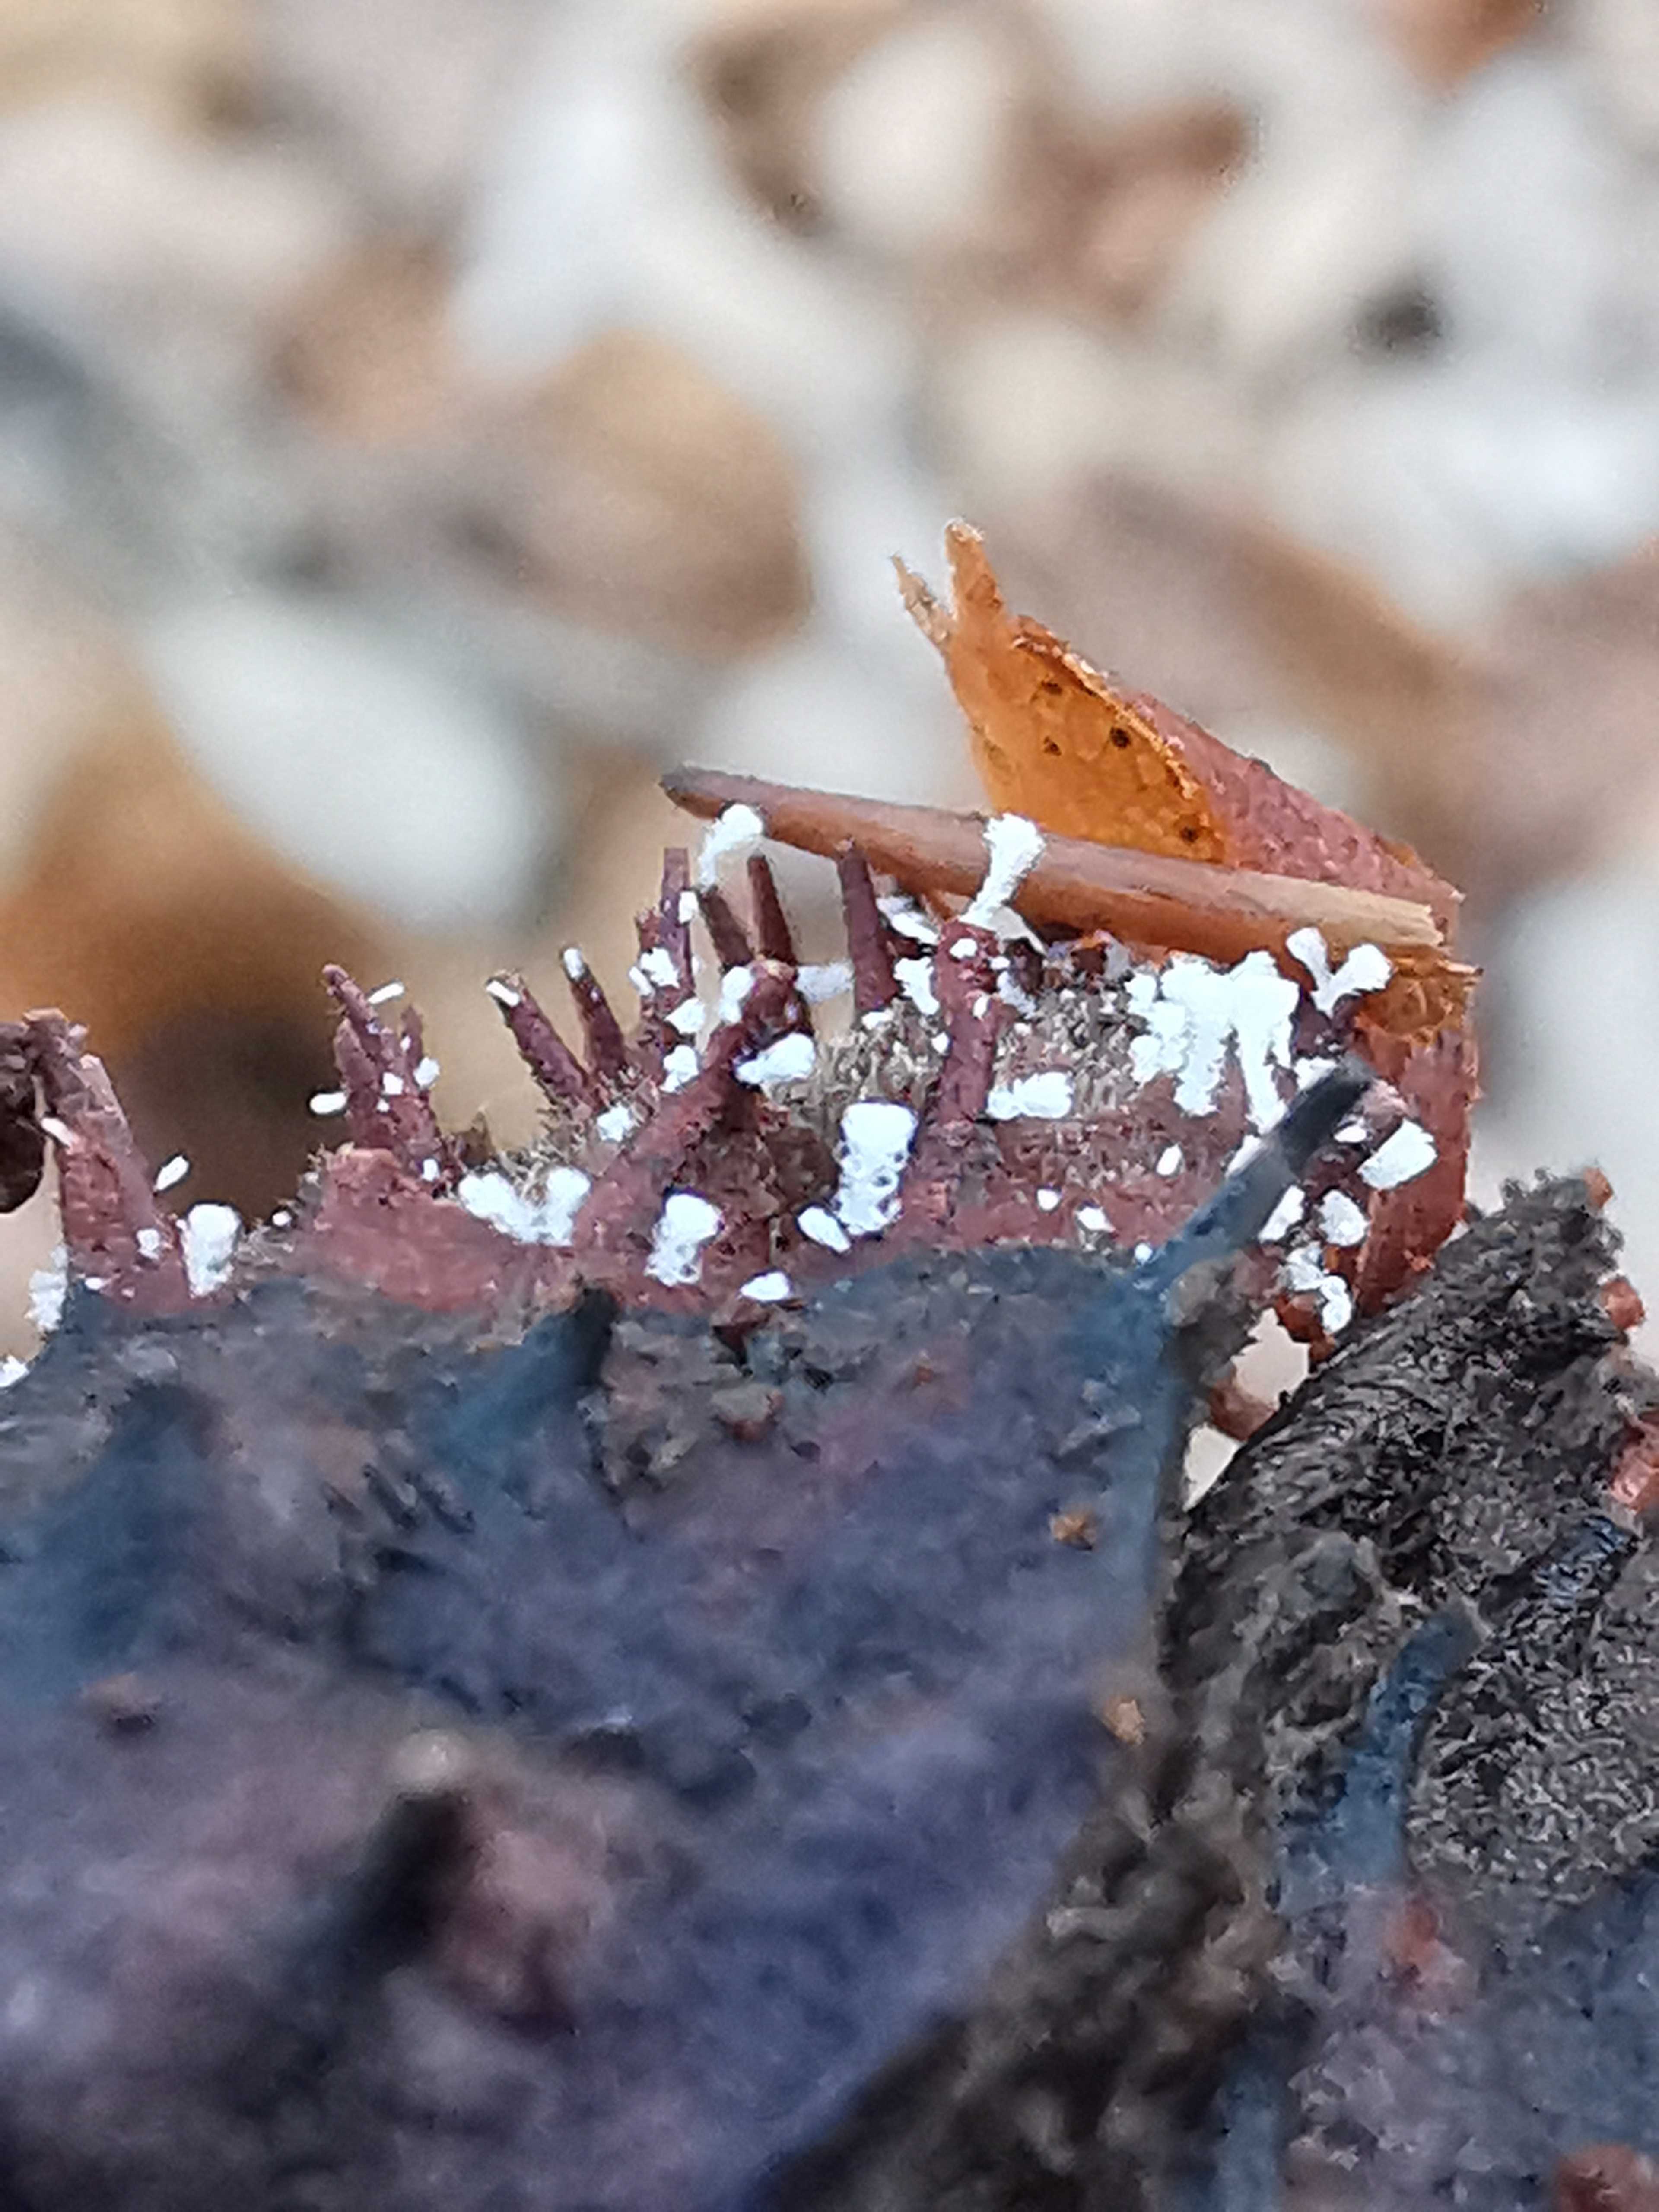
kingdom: Fungi
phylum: Ascomycota
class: Leotiomycetes
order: Helotiales
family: Lachnaceae
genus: Lachnum
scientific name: Lachnum virgineum
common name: jomfru-frynseskive
